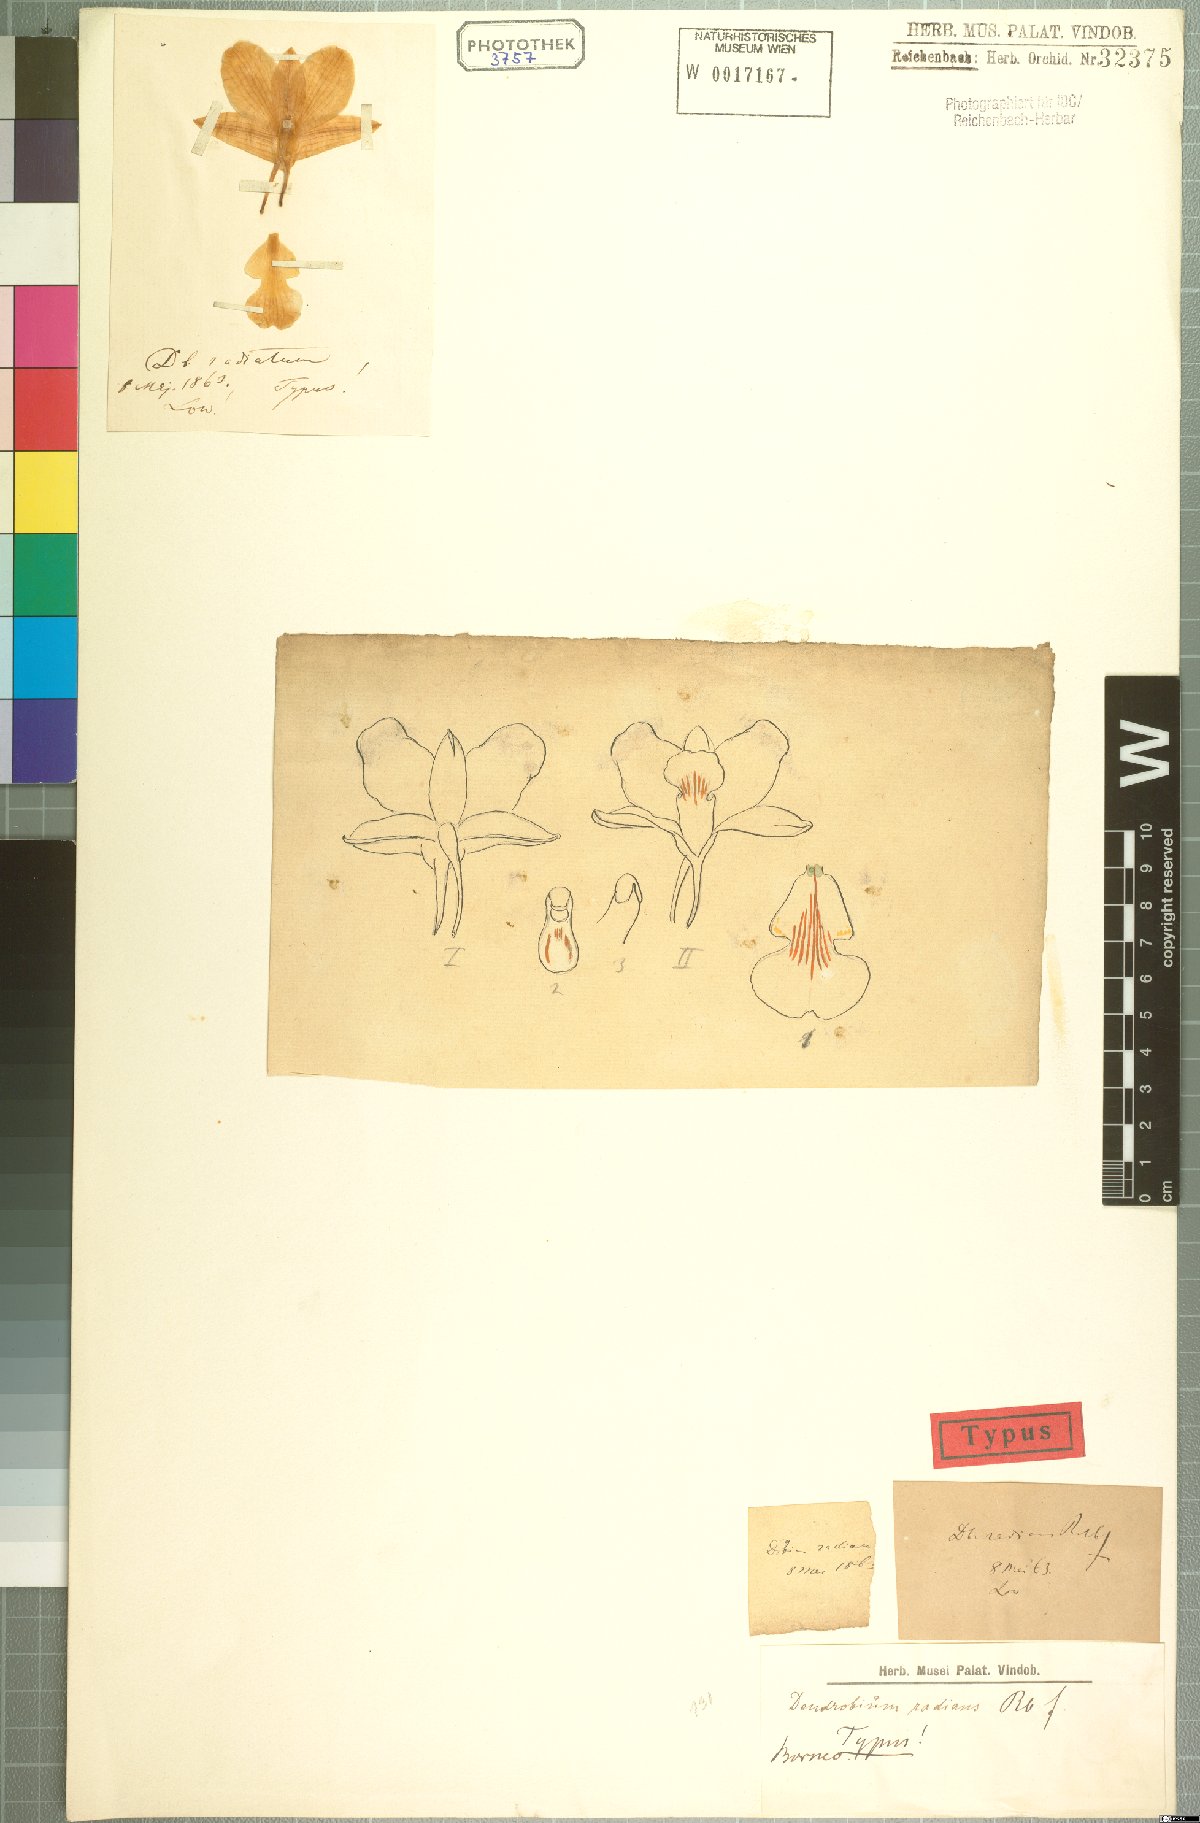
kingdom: Plantae
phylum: Tracheophyta
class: Liliopsida
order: Asparagales
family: Orchidaceae
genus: Dendrobium
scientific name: Dendrobium radians
